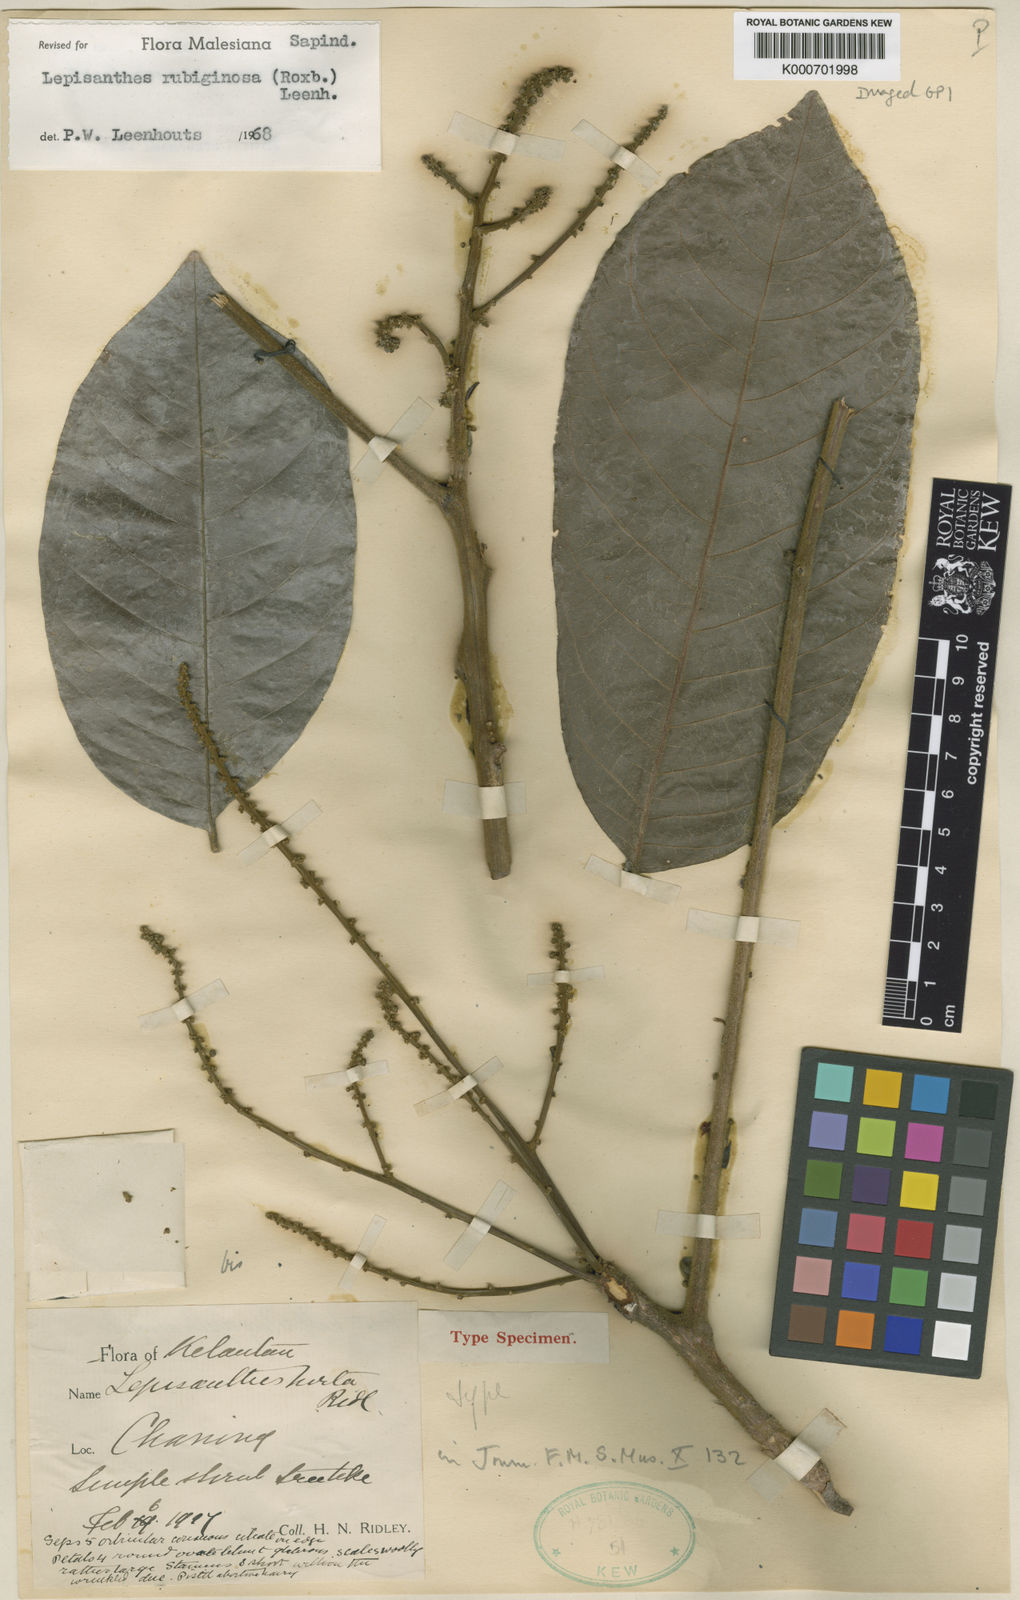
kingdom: Plantae
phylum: Tracheophyta
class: Magnoliopsida
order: Sapindales
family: Sapindaceae
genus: Lepisanthes
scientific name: Lepisanthes rubiginosa
